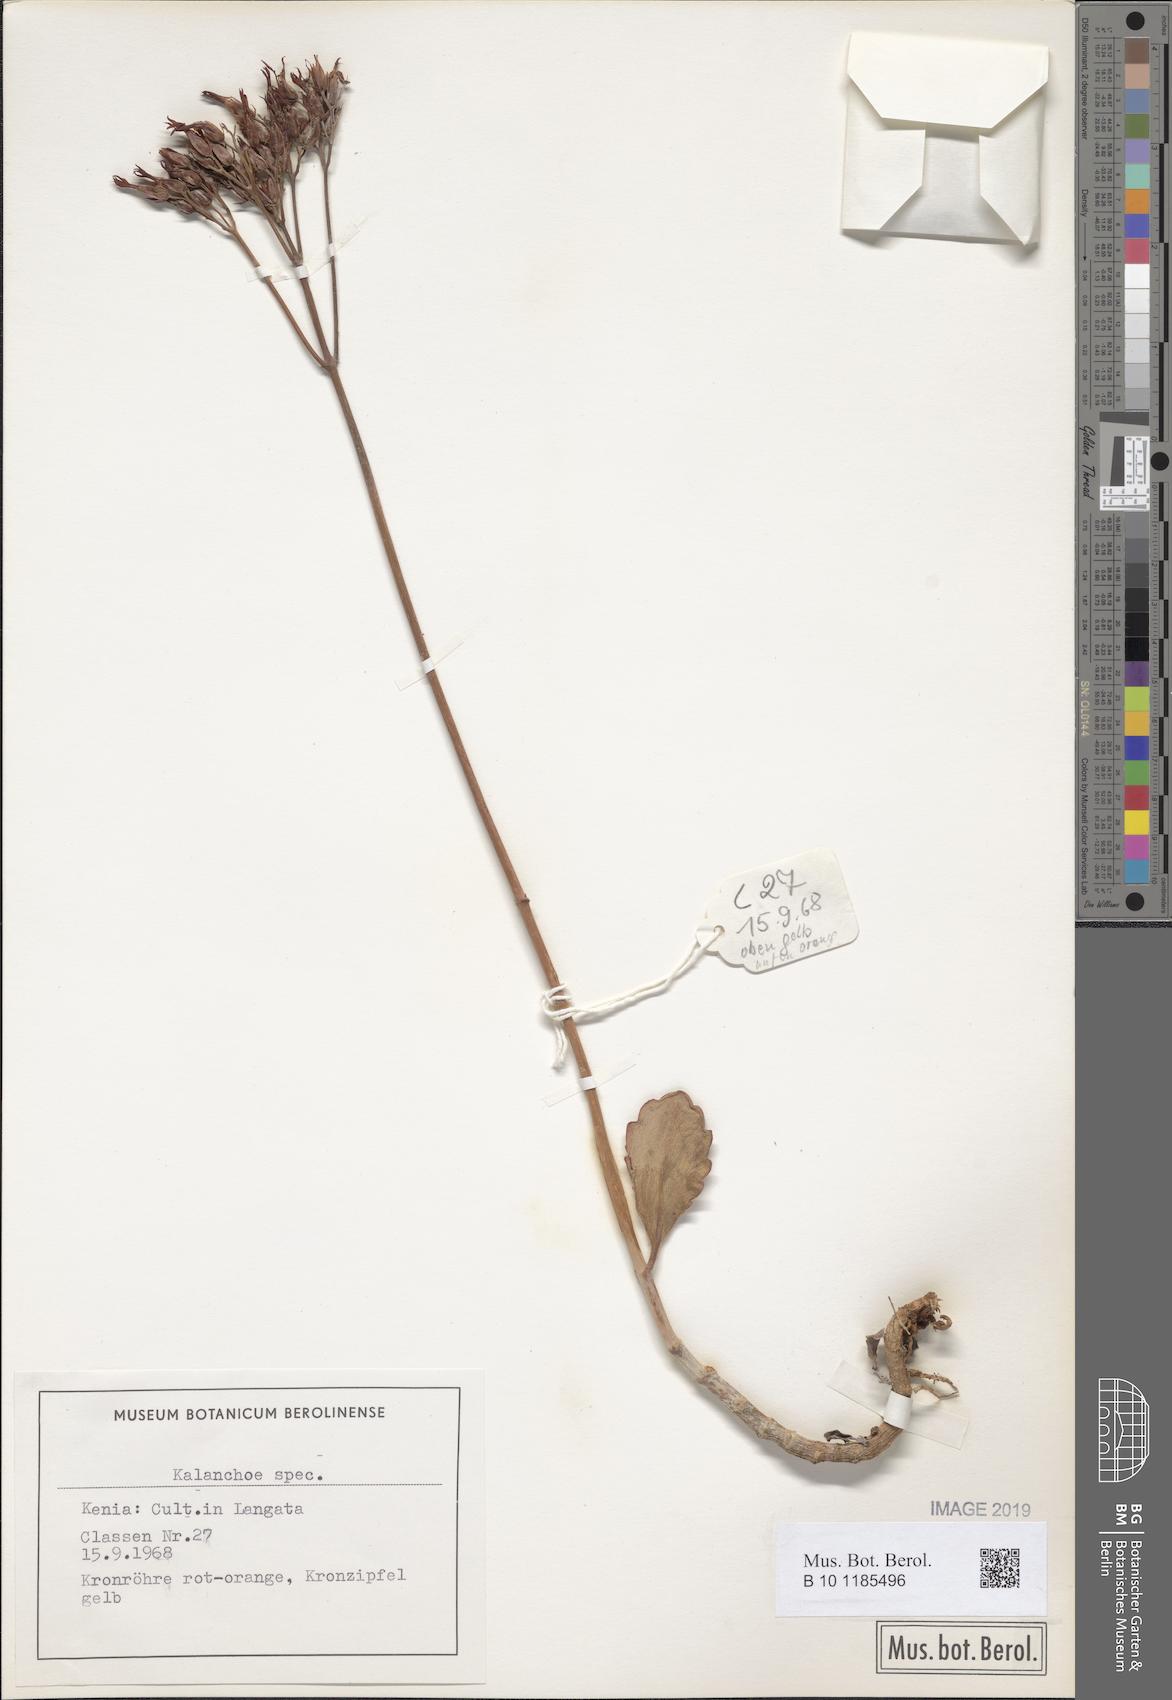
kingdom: Plantae
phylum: Tracheophyta
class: Magnoliopsida
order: Saxifragales
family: Crassulaceae
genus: Kalanchoe
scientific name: Kalanchoe
